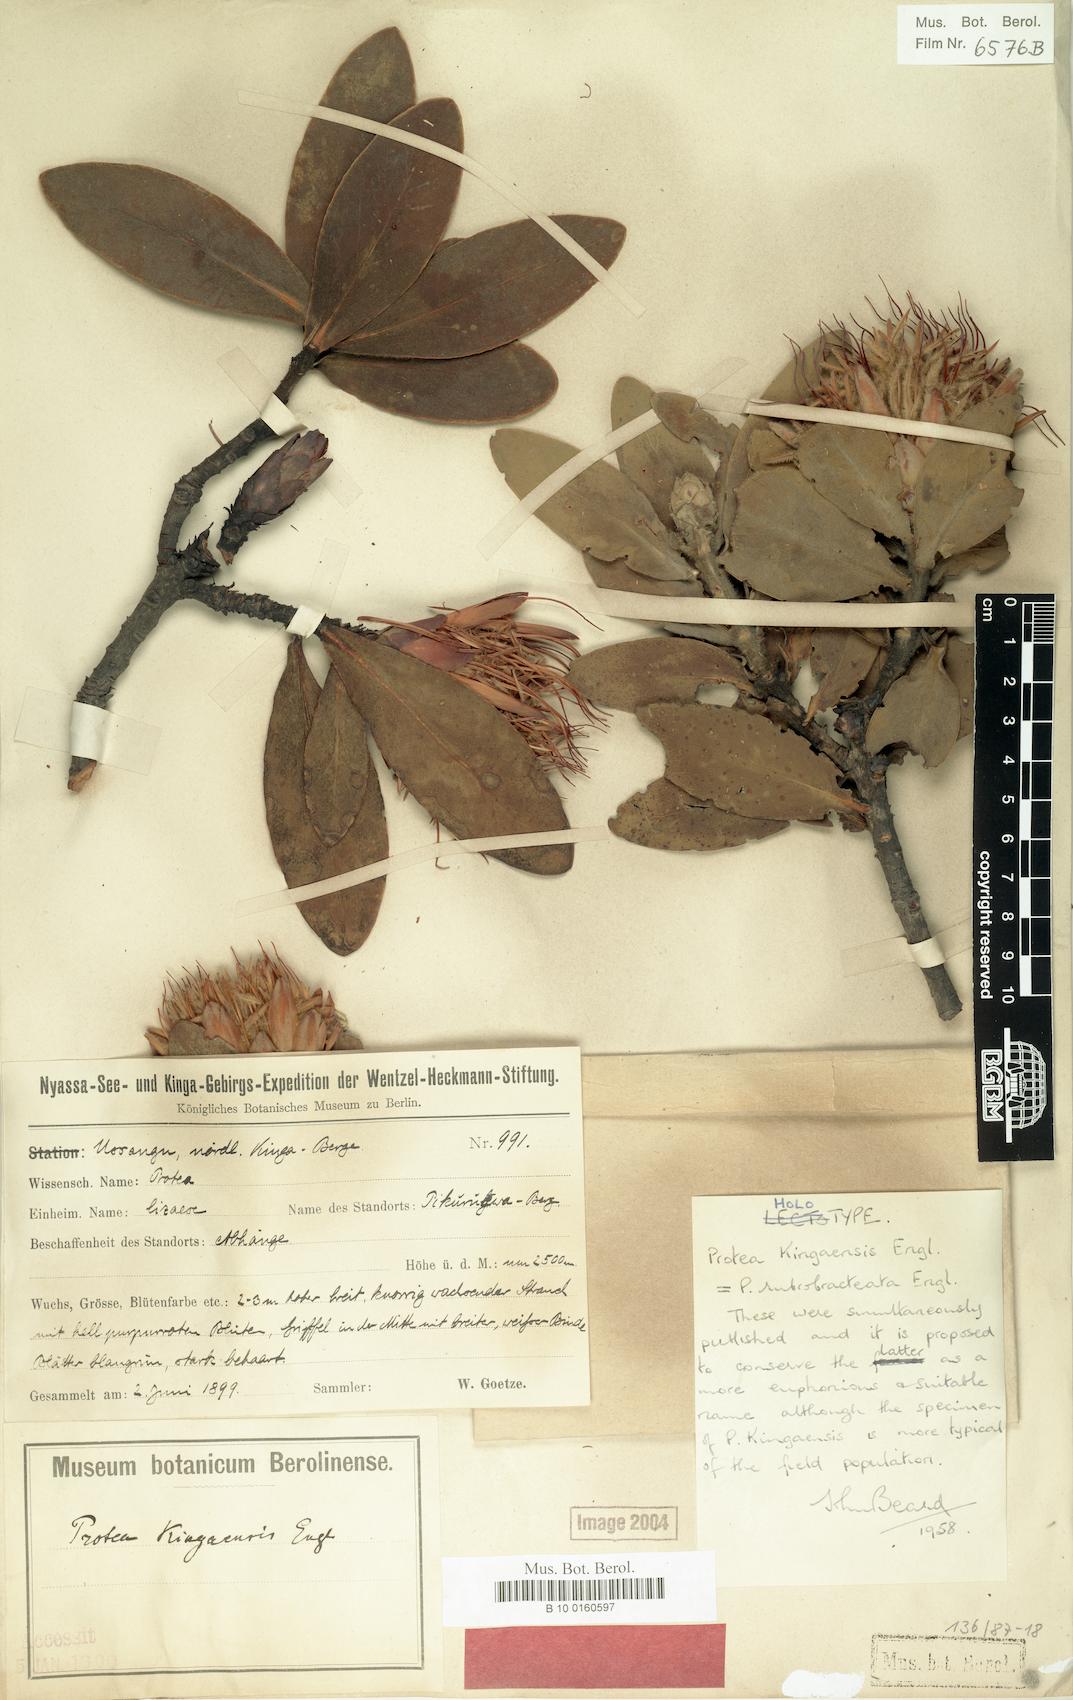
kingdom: Plantae
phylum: Tracheophyta
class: Magnoliopsida
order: Proteales
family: Proteaceae
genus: Protea
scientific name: Protea rubrobracteata
